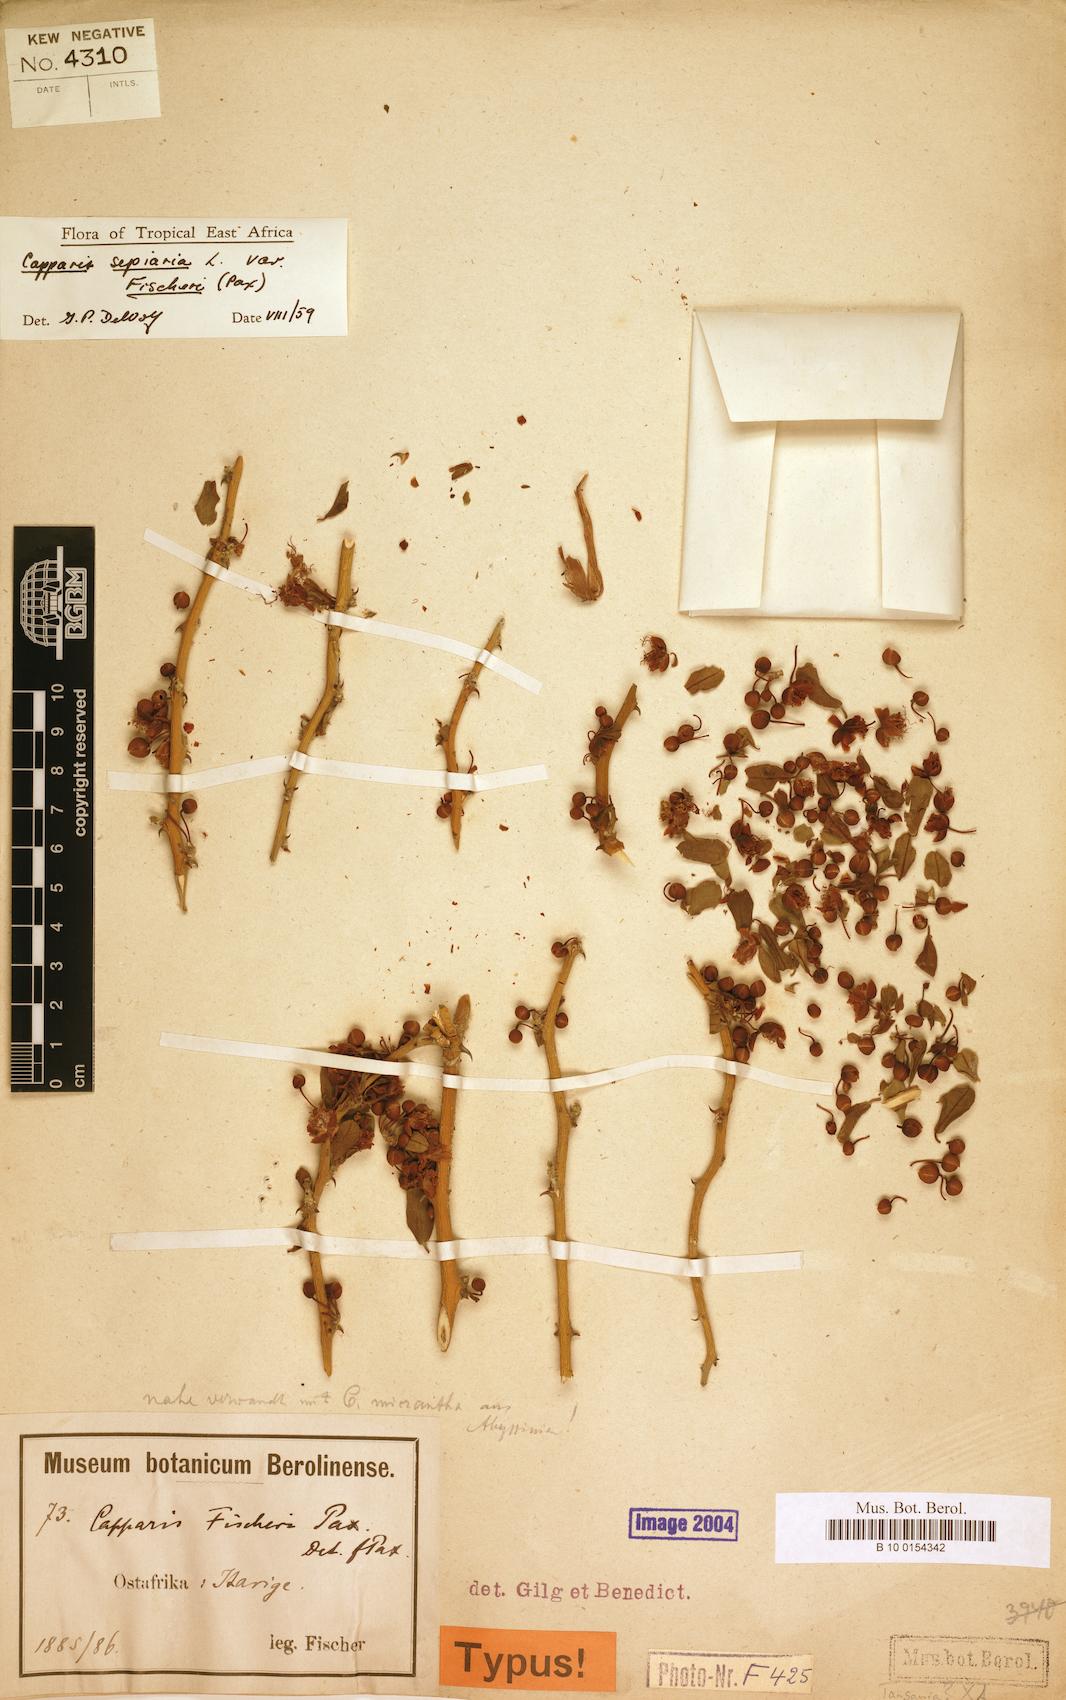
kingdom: Plantae
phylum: Tracheophyta
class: Magnoliopsida
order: Brassicales
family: Capparaceae
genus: Capparis
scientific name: Capparis sepiaria
